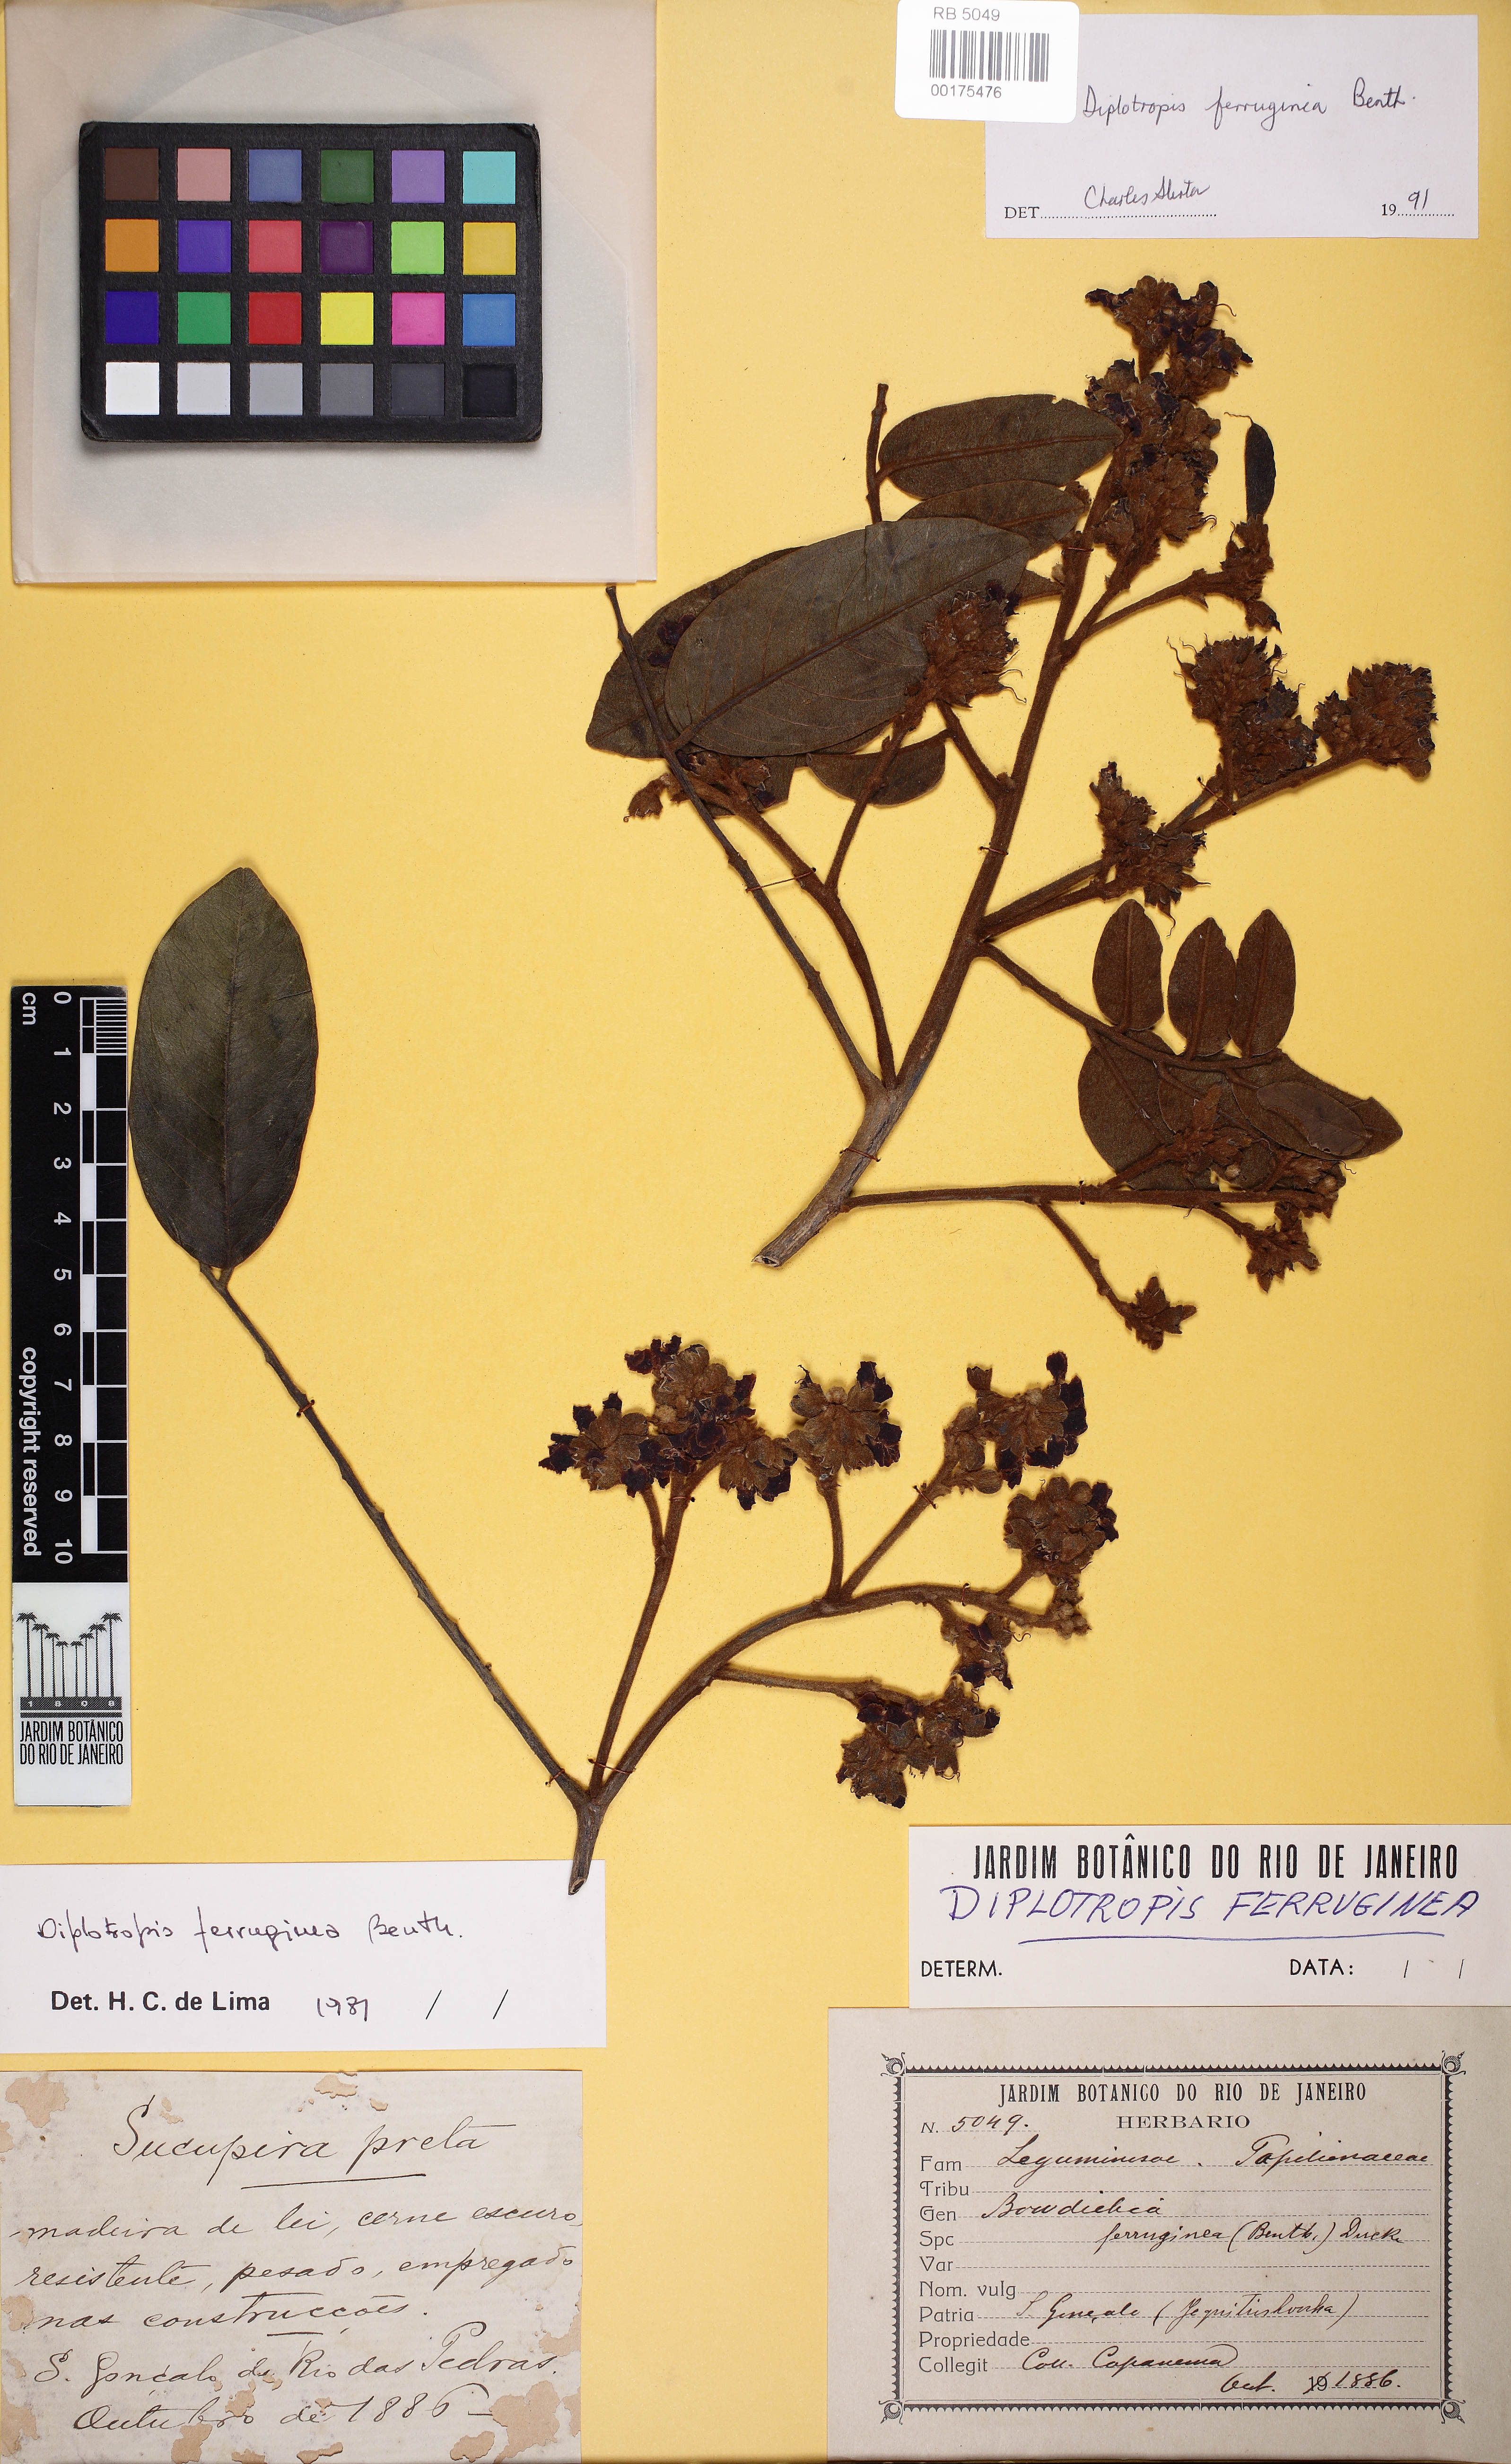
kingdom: Plantae
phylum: Tracheophyta
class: Magnoliopsida
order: Fabales
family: Fabaceae
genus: Diplotropis
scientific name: Diplotropis ferruginea
